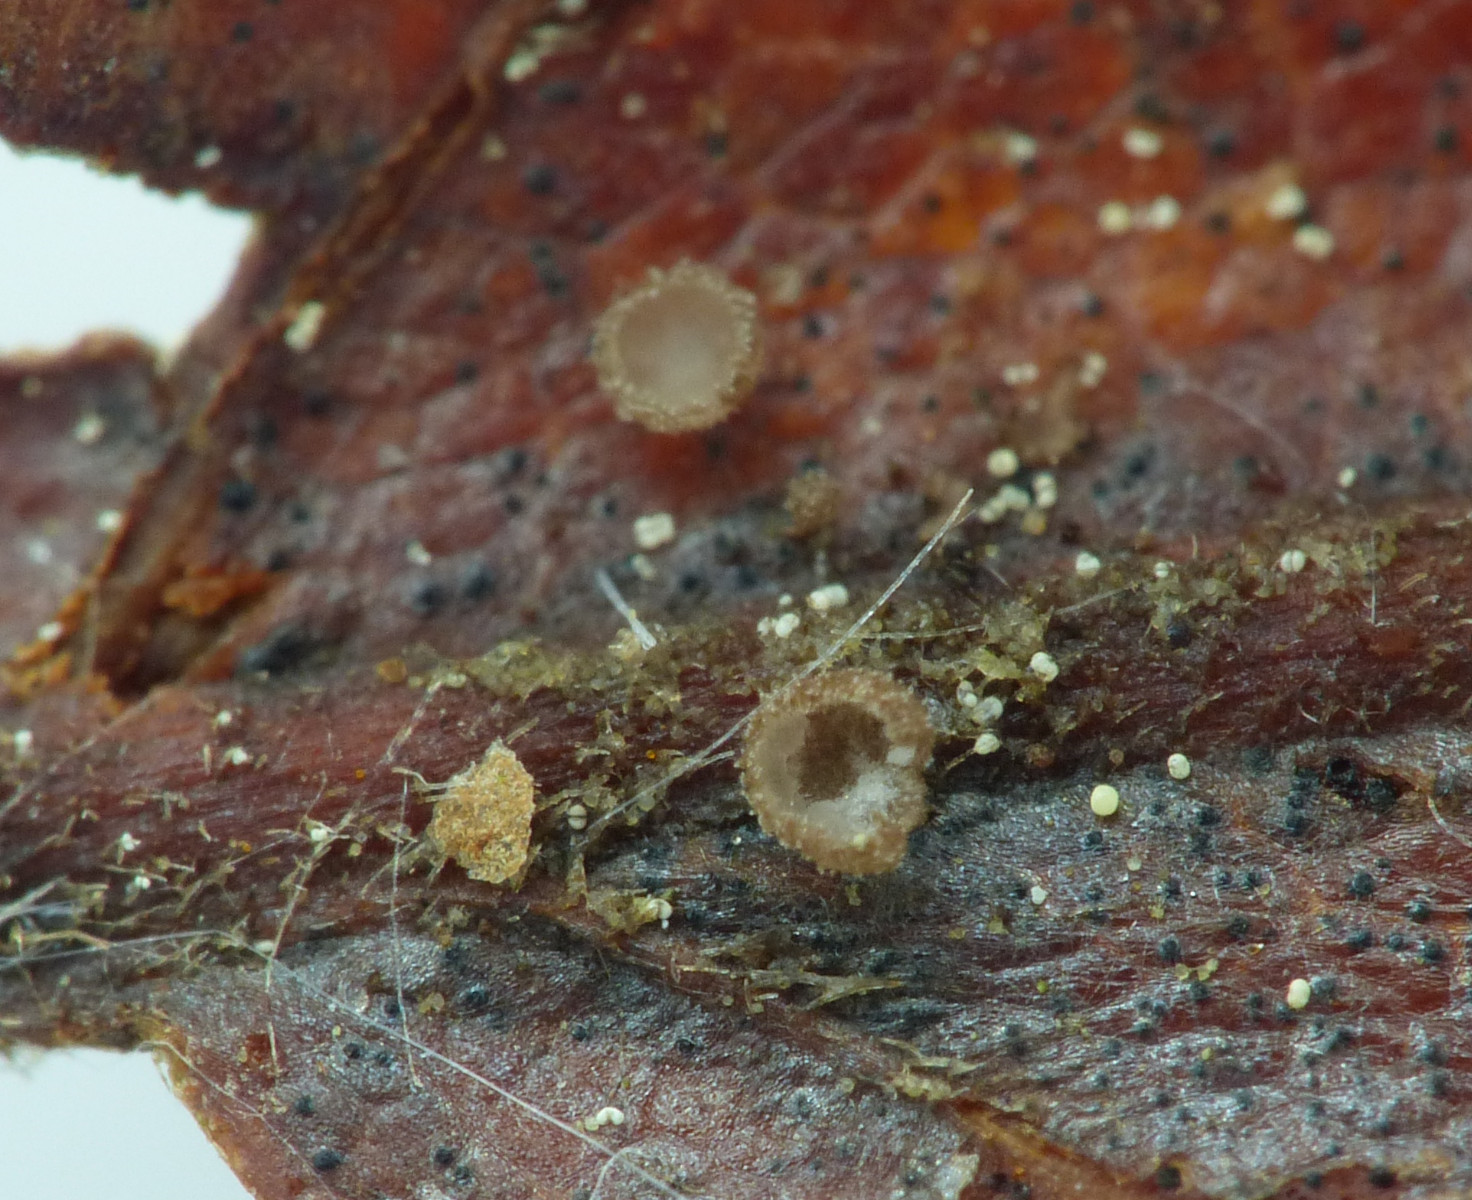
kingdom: Fungi
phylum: Ascomycota
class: Leotiomycetes
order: Helotiales
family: Lachnaceae
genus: Brunnipila
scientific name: Brunnipila fuscescens
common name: bøge-frynseskive
